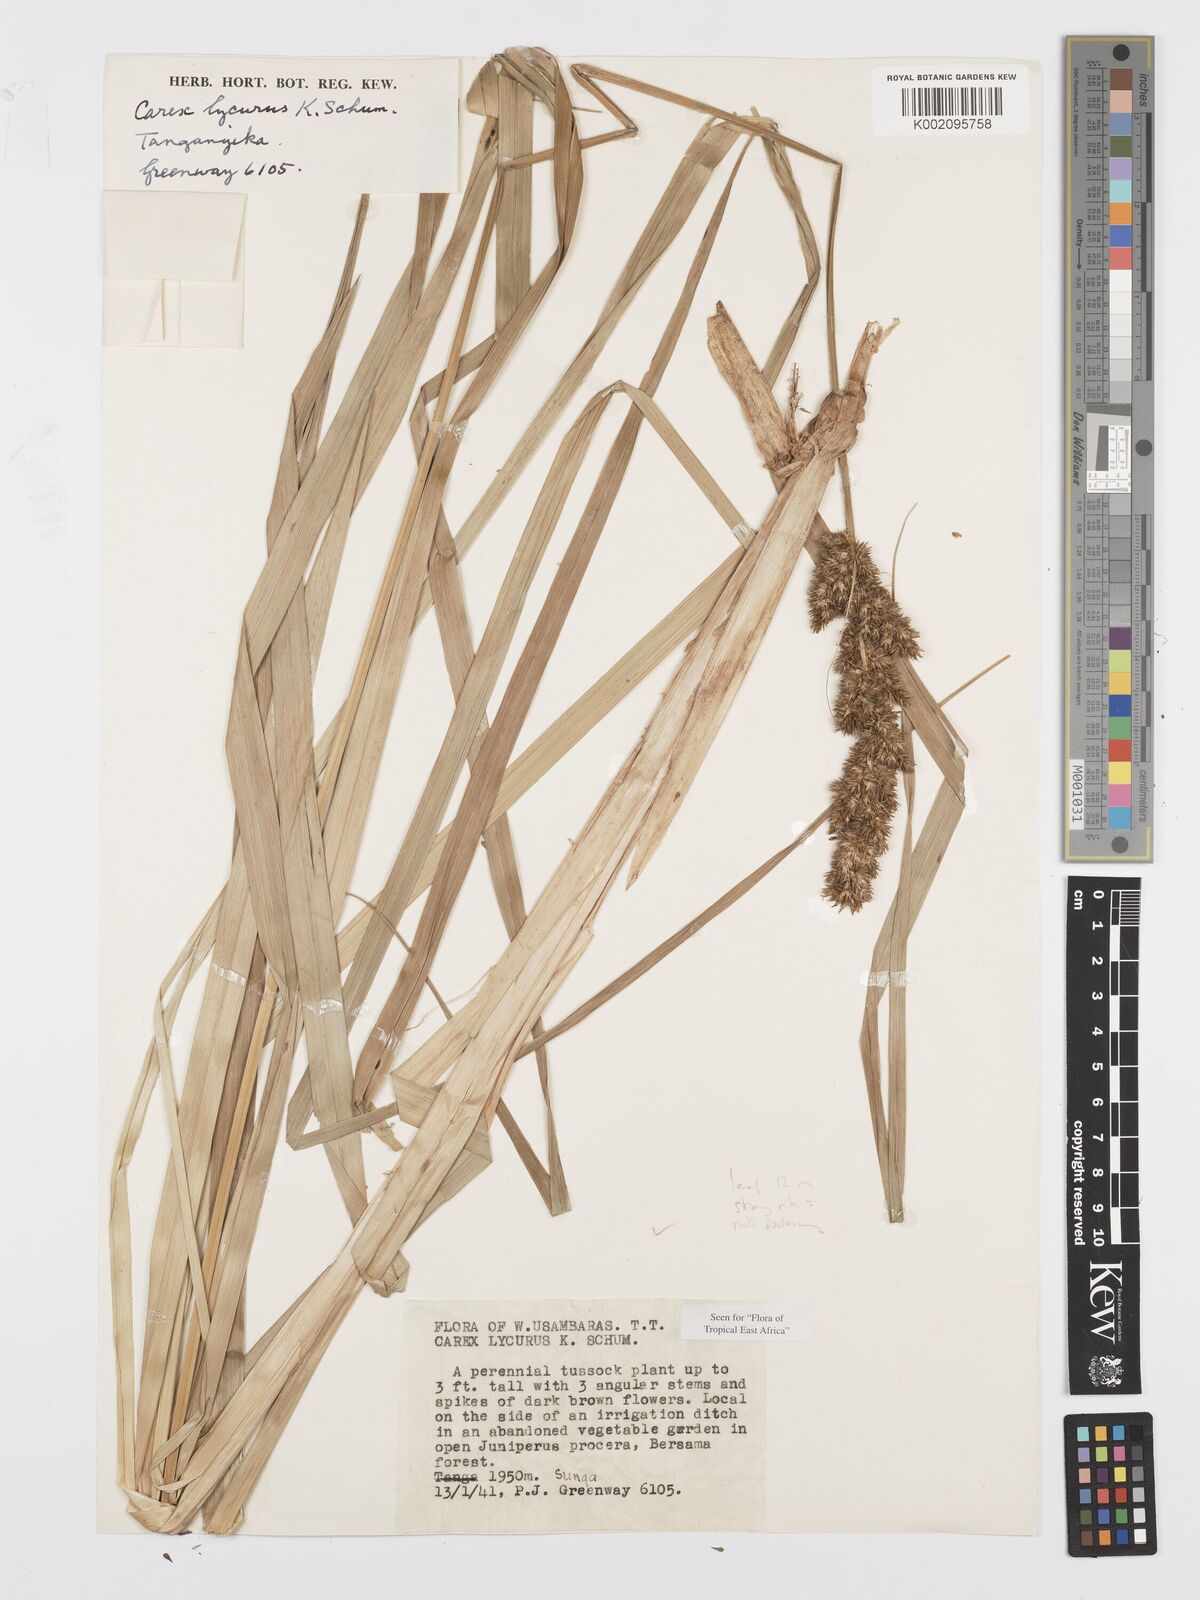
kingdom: Plantae
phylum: Tracheophyta
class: Liliopsida
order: Poales
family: Cyperaceae
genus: Carex
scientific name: Carex lycurus
